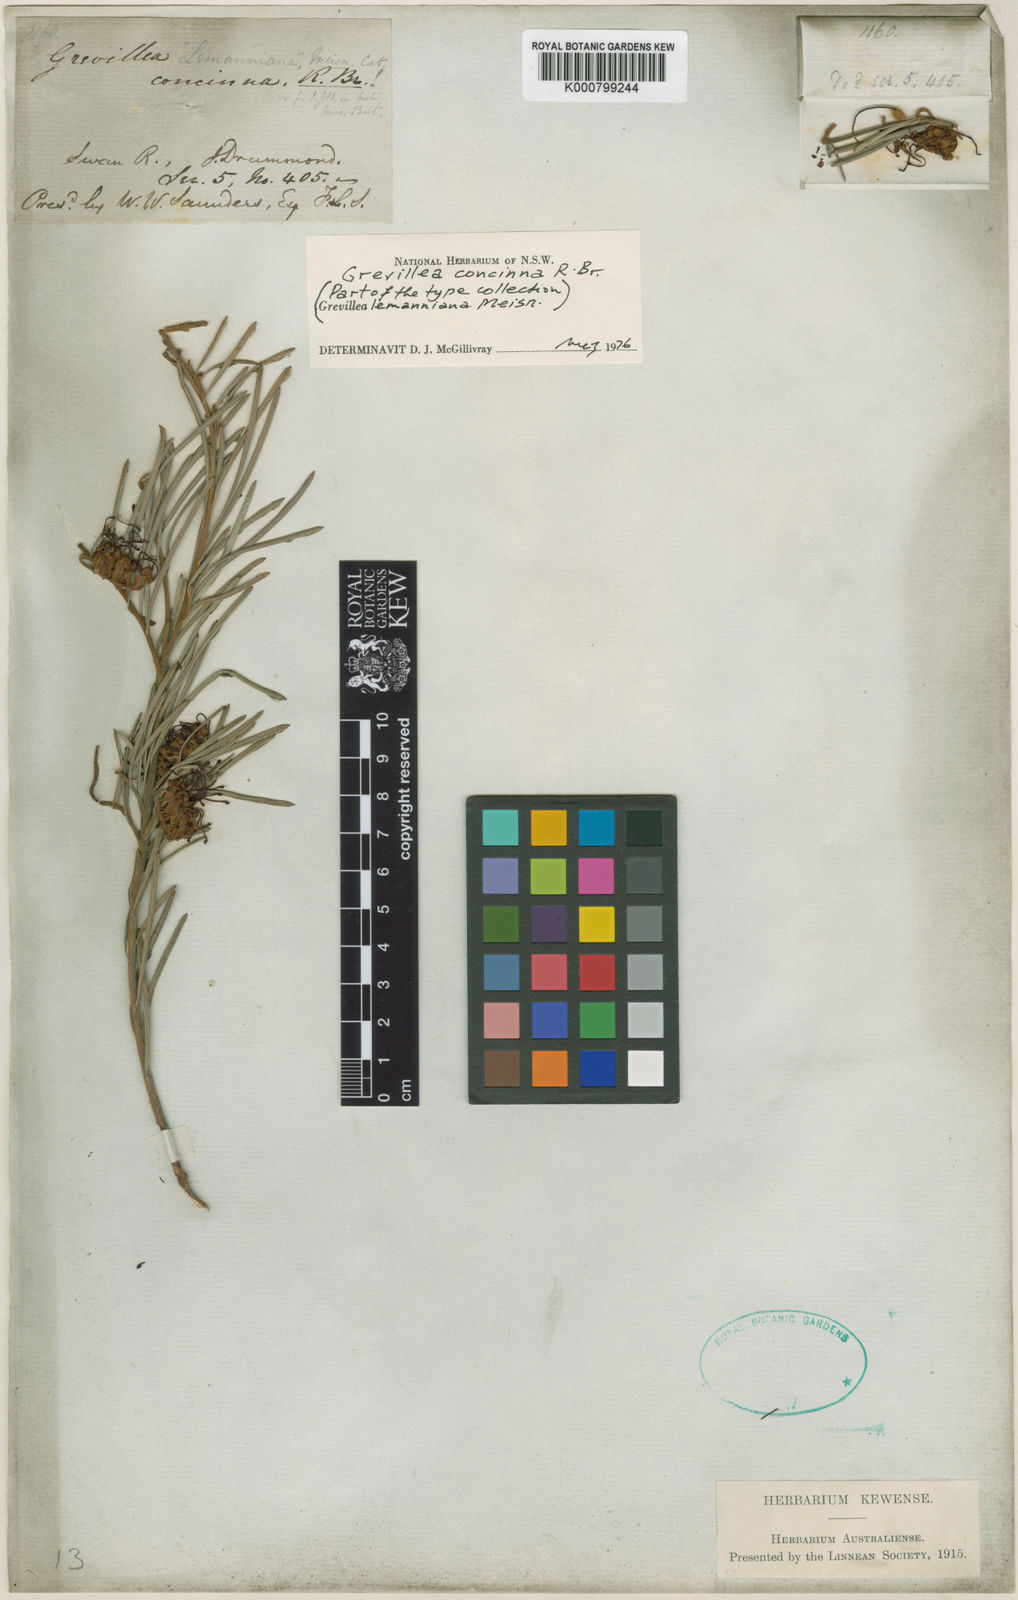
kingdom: Plantae
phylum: Tracheophyta
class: Magnoliopsida
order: Proteales
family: Proteaceae
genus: Grevillea
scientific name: Grevillea concinna
